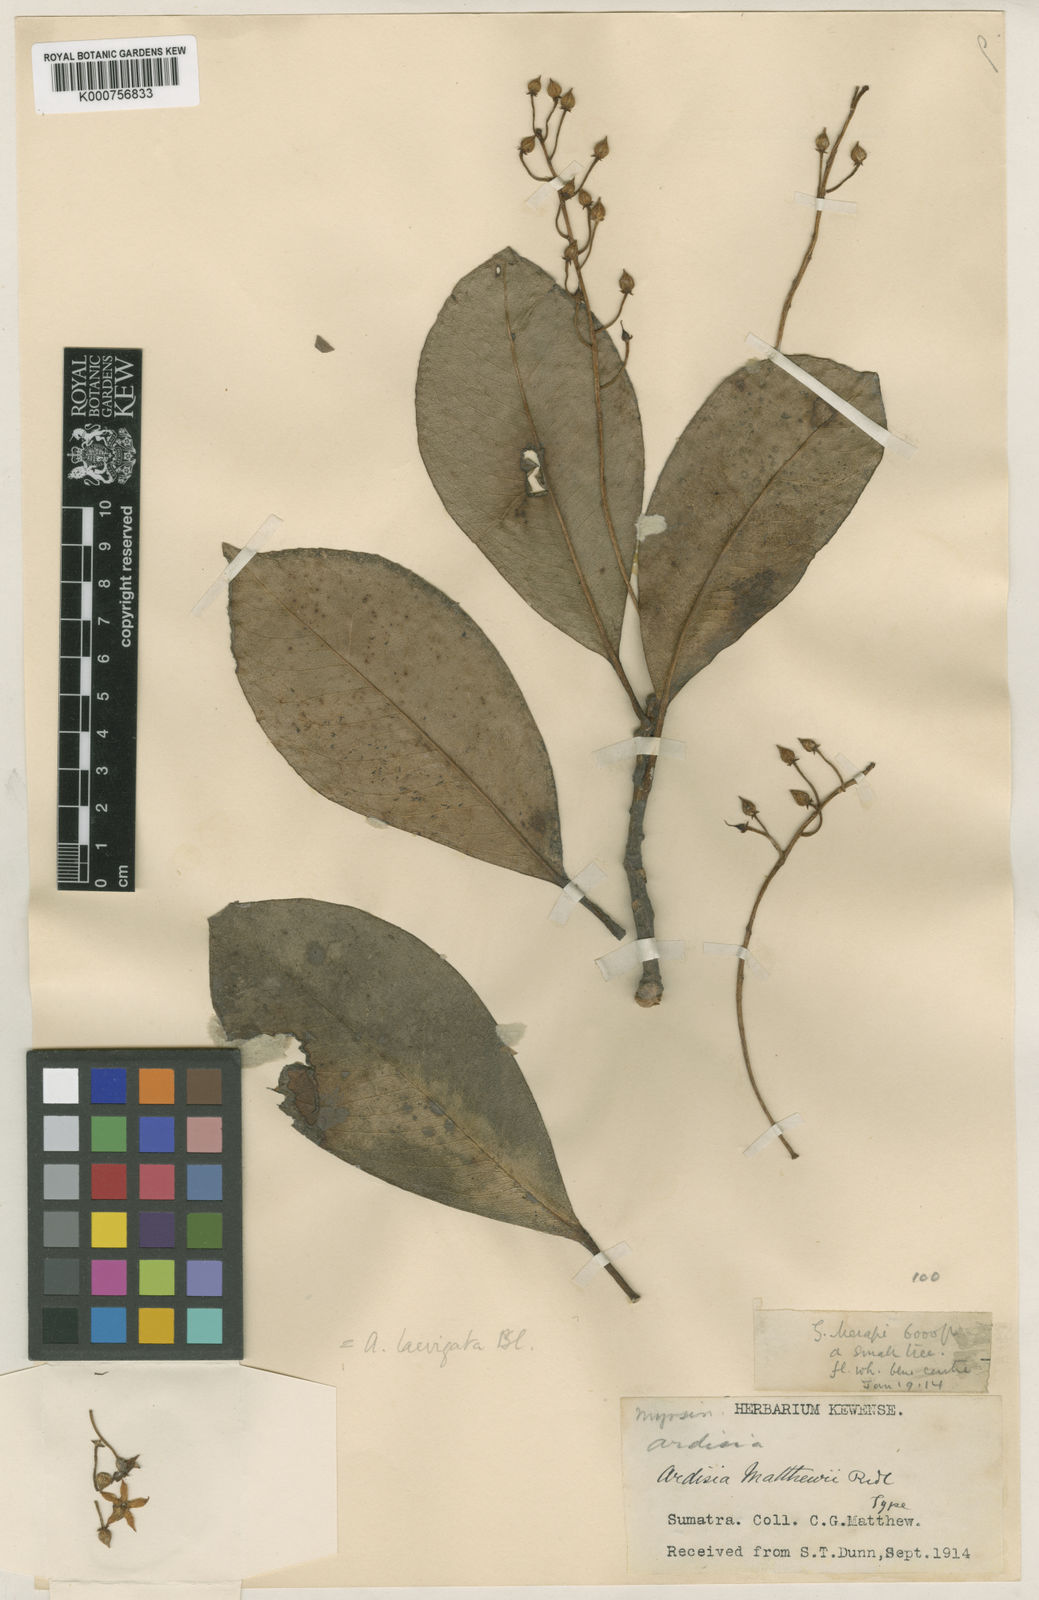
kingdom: Plantae
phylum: Tracheophyta
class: Magnoliopsida
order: Ericales
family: Primulaceae
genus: Ardisia
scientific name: Ardisia laevigata
